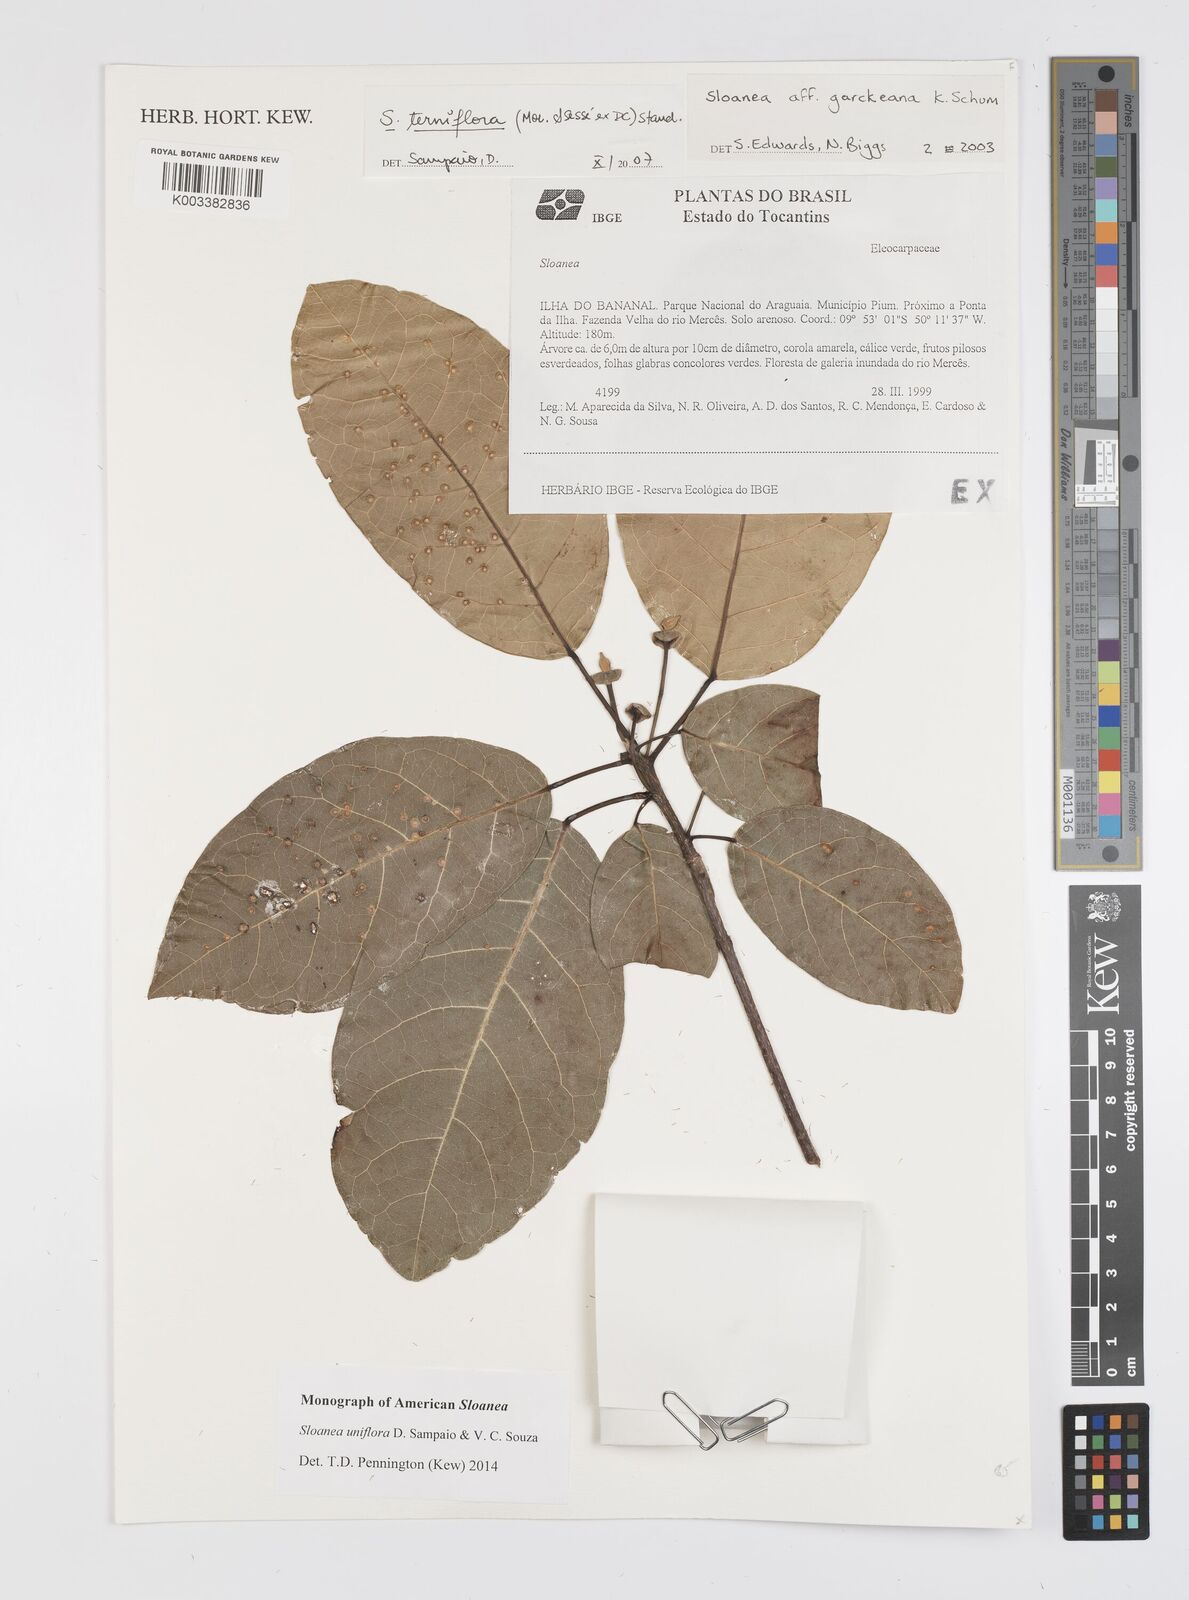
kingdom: Plantae
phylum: Tracheophyta
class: Magnoliopsida
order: Oxalidales
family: Elaeocarpaceae
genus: Sloanea
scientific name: Sloanea uniflora
